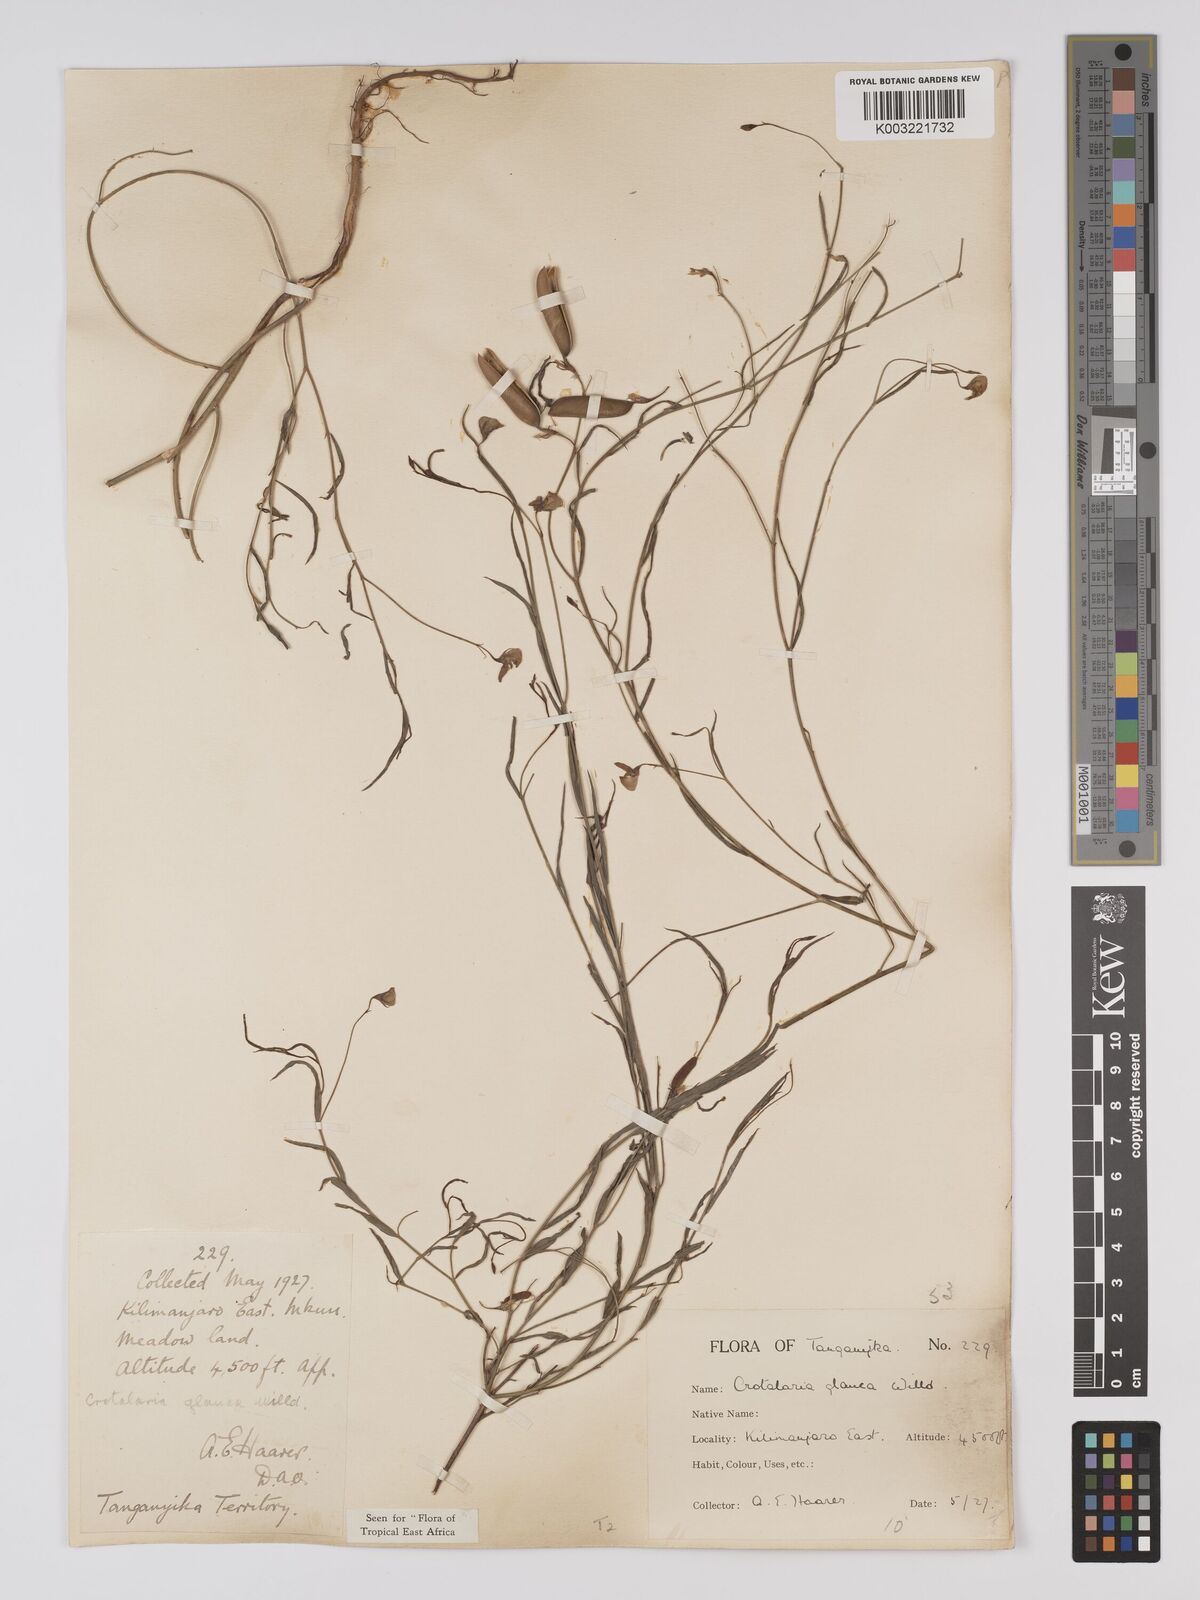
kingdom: Plantae
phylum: Tracheophyta
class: Magnoliopsida
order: Fabales
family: Fabaceae
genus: Crotalaria
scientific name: Crotalaria glauca
